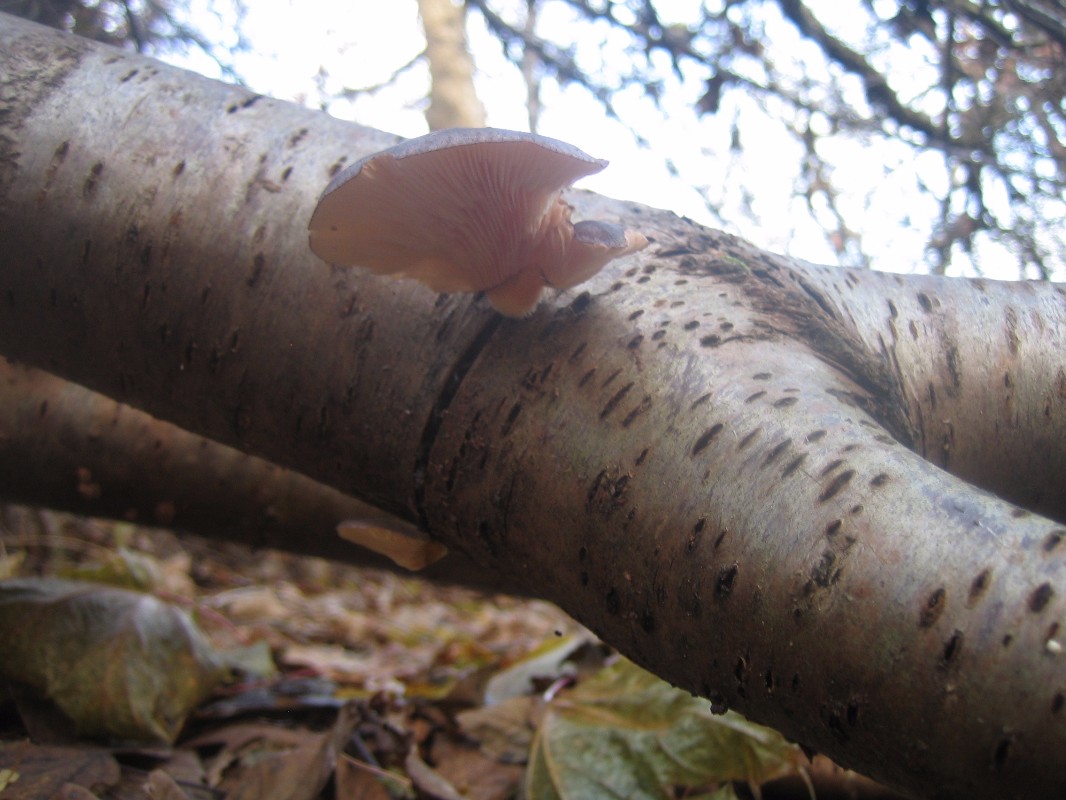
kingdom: Fungi
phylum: Basidiomycota
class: Agaricomycetes
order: Agaricales
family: Sarcomyxaceae
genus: Sarcomyxa
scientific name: Sarcomyxa serotina
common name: gummihat
